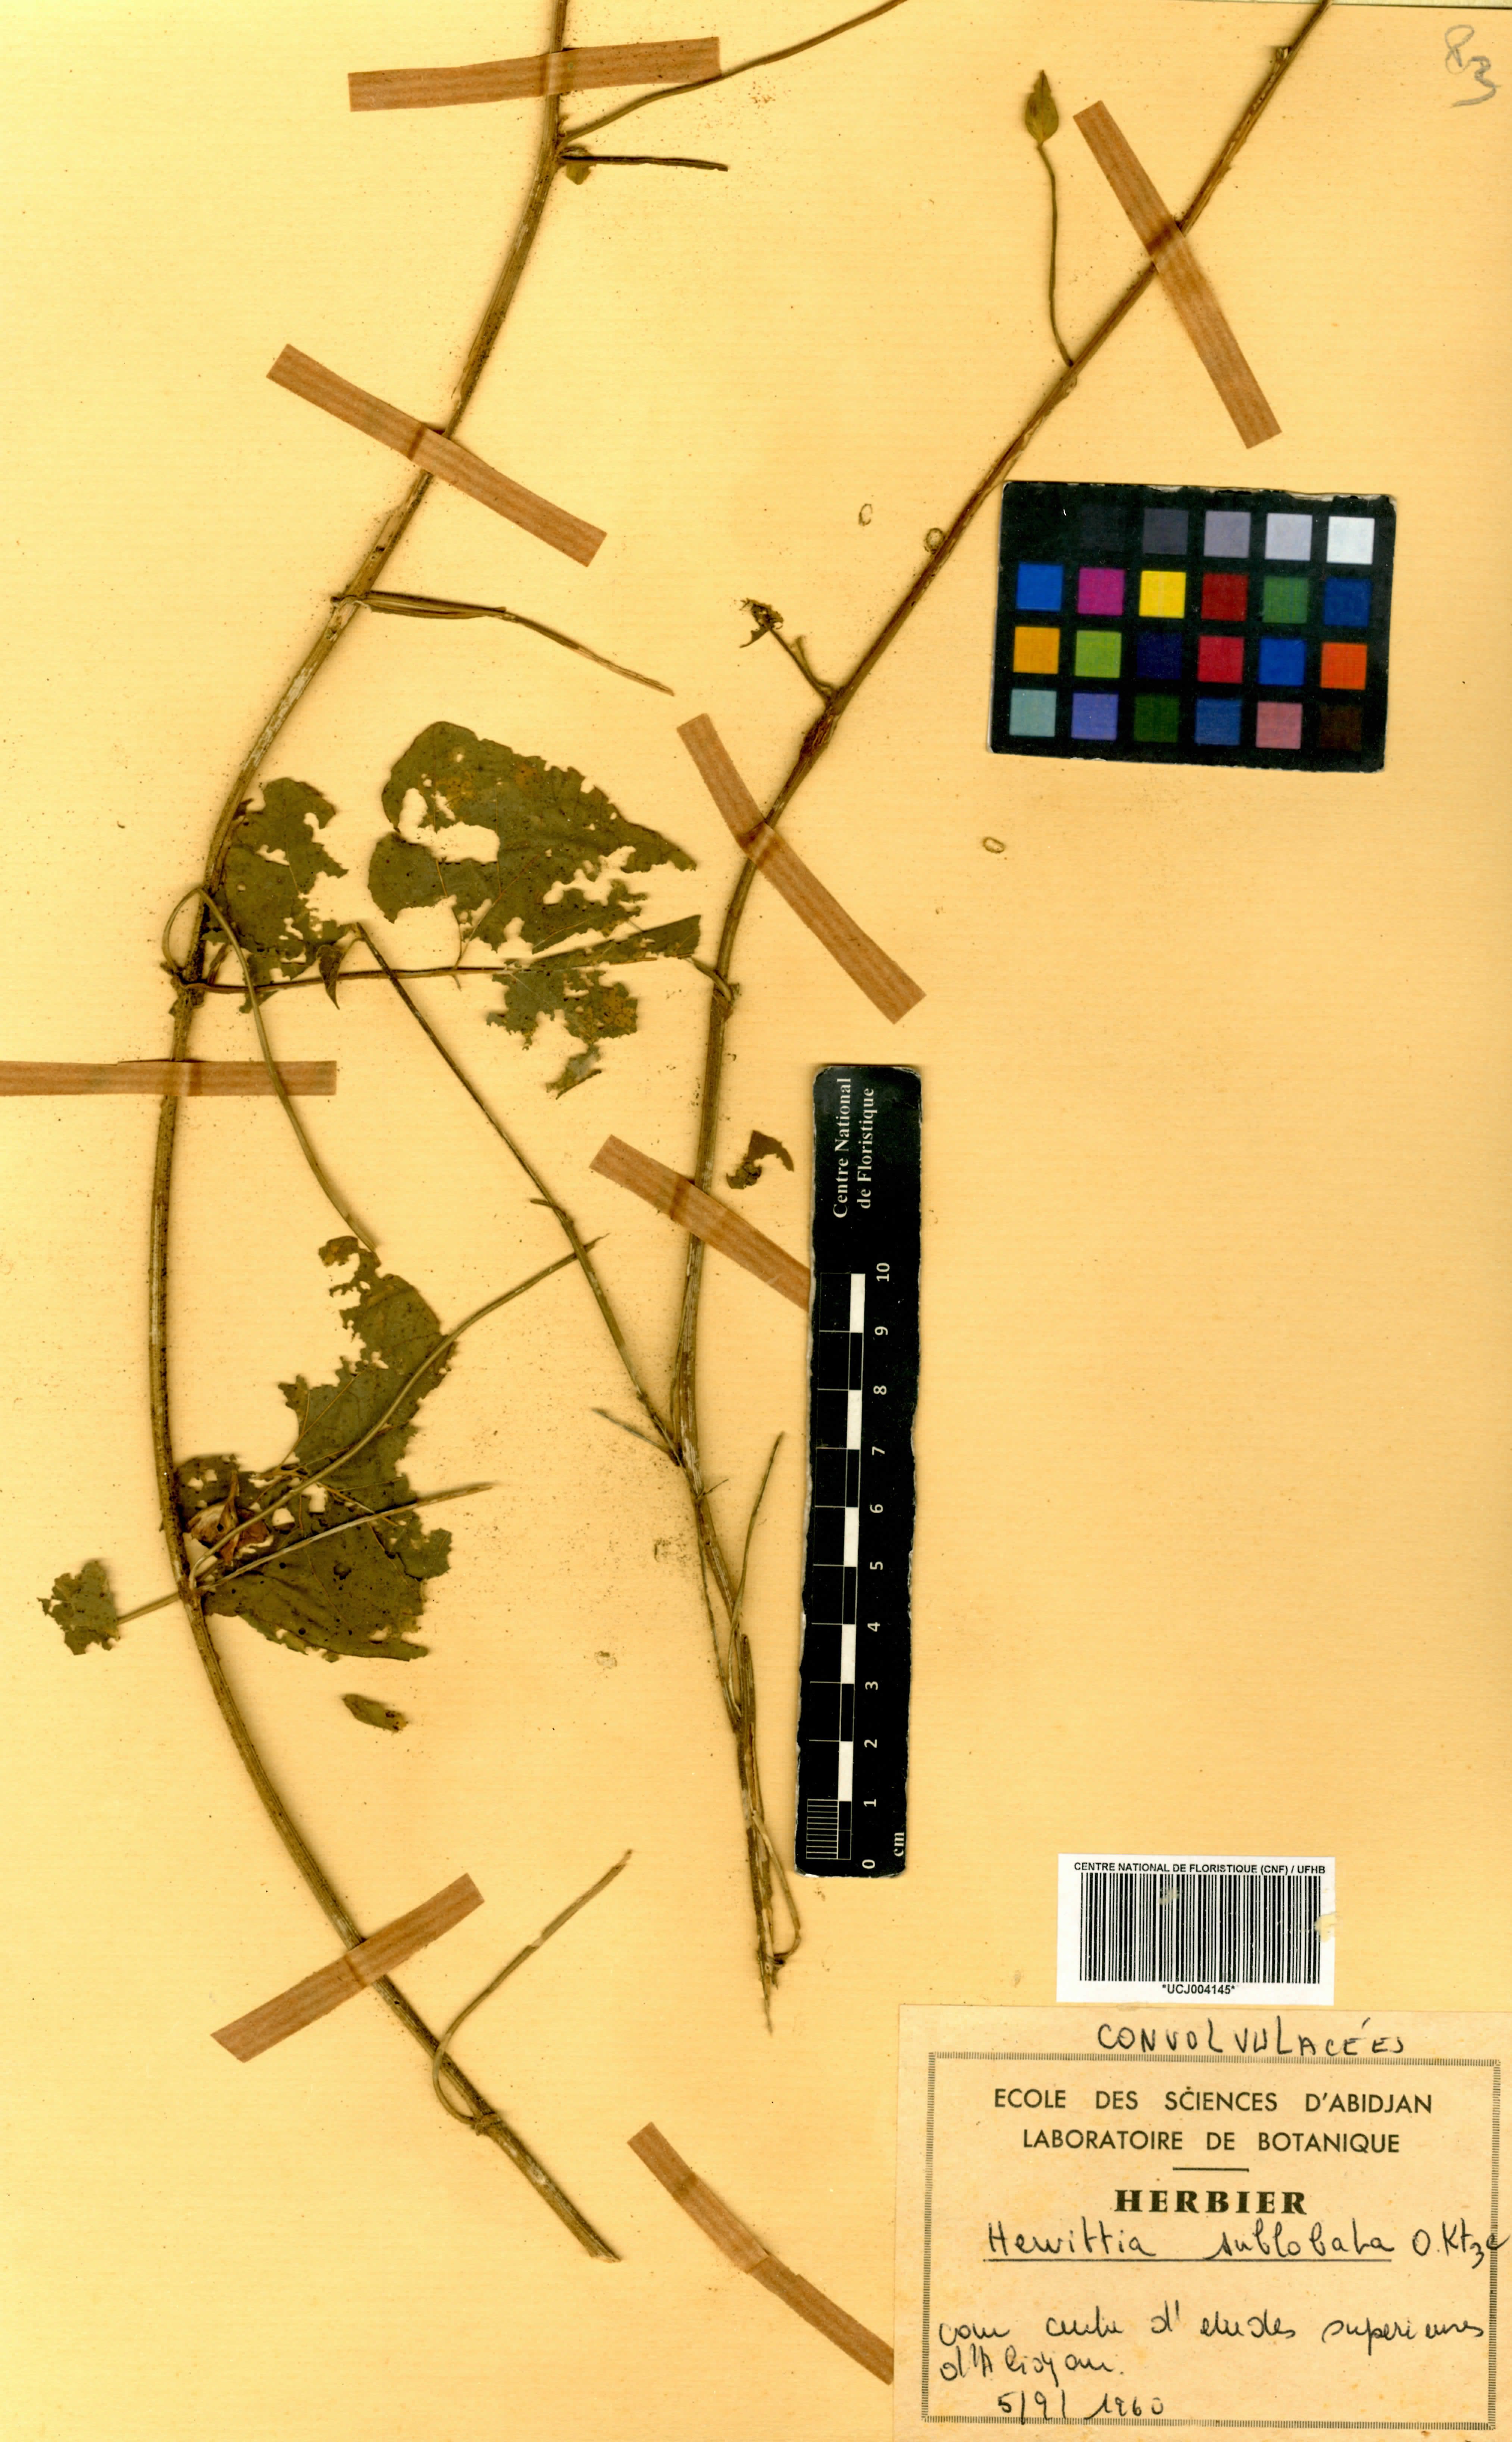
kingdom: Plantae
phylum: Tracheophyta
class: Magnoliopsida
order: Solanales
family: Convolvulaceae
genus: Hewittia
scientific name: Hewittia sublobata
